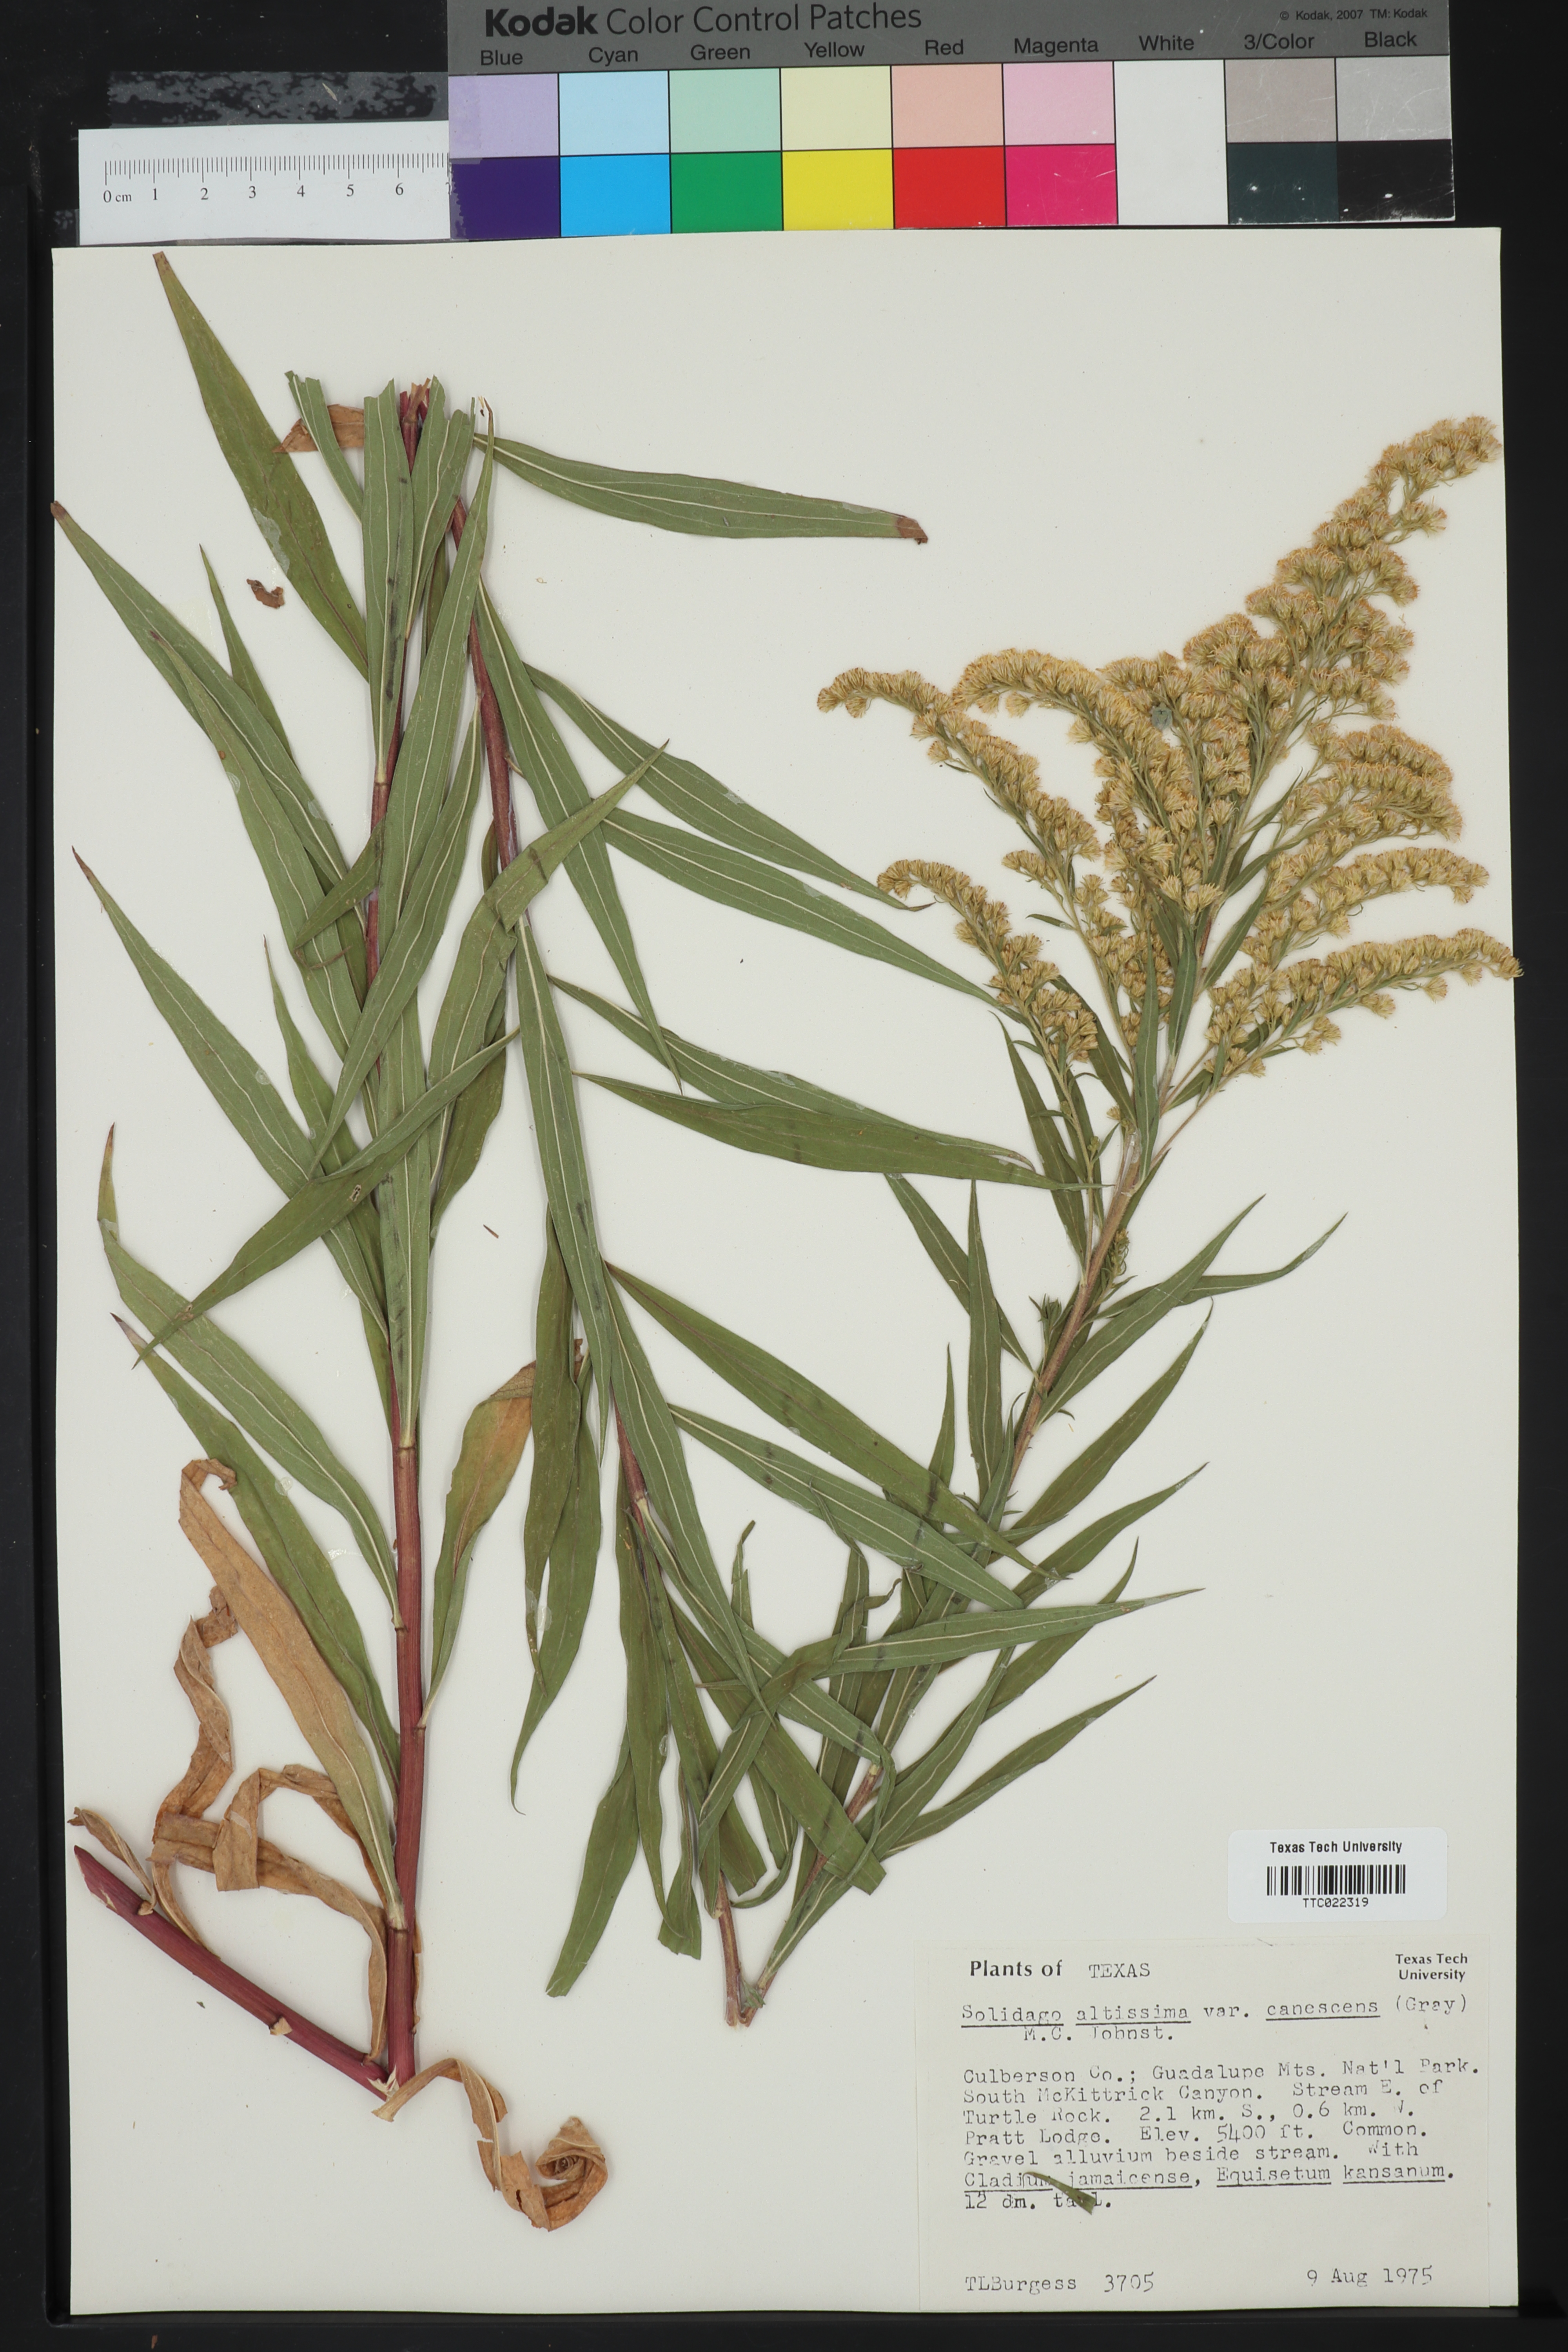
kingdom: Plantae
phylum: Tracheophyta
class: Magnoliopsida
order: Asterales
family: Asteraceae
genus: Solidago
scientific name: Solidago altissima
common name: Late goldenrod
